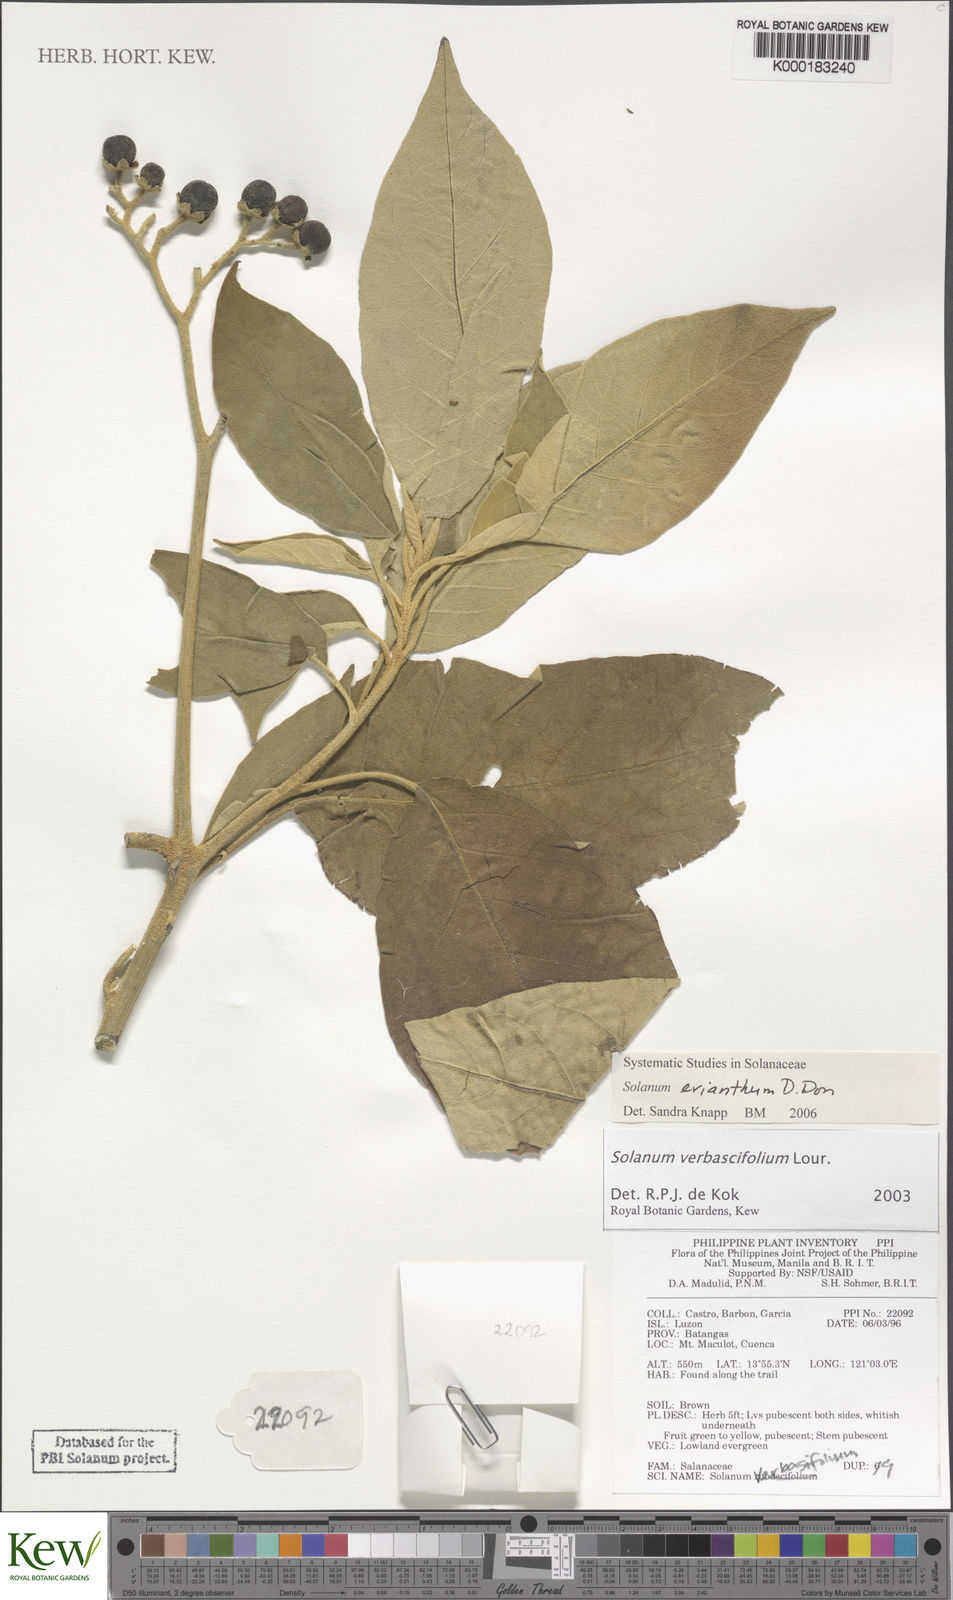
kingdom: Plantae
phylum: Tracheophyta
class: Magnoliopsida
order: Solanales
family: Solanaceae
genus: Solanum
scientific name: Solanum donianum
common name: Mullein nightshade
